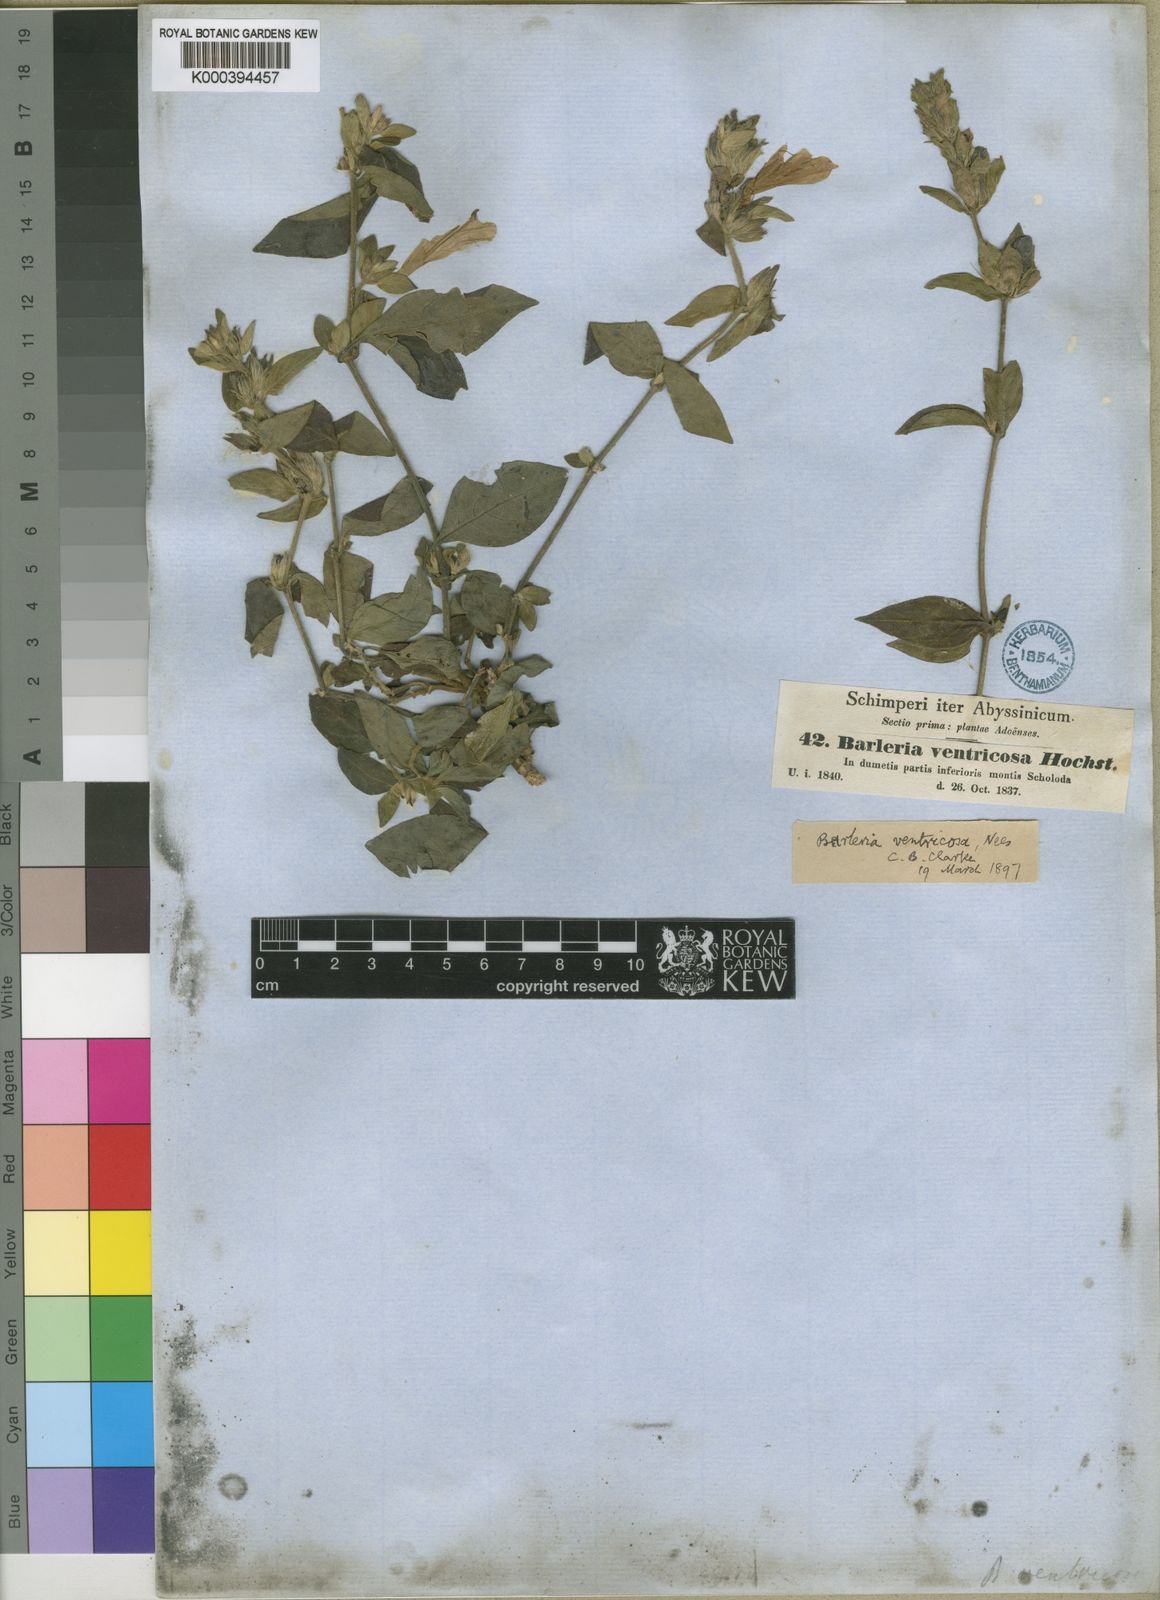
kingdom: Plantae
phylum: Tracheophyta
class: Magnoliopsida
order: Lamiales
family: Acanthaceae
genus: Barleria
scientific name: Barleria ventricosa
